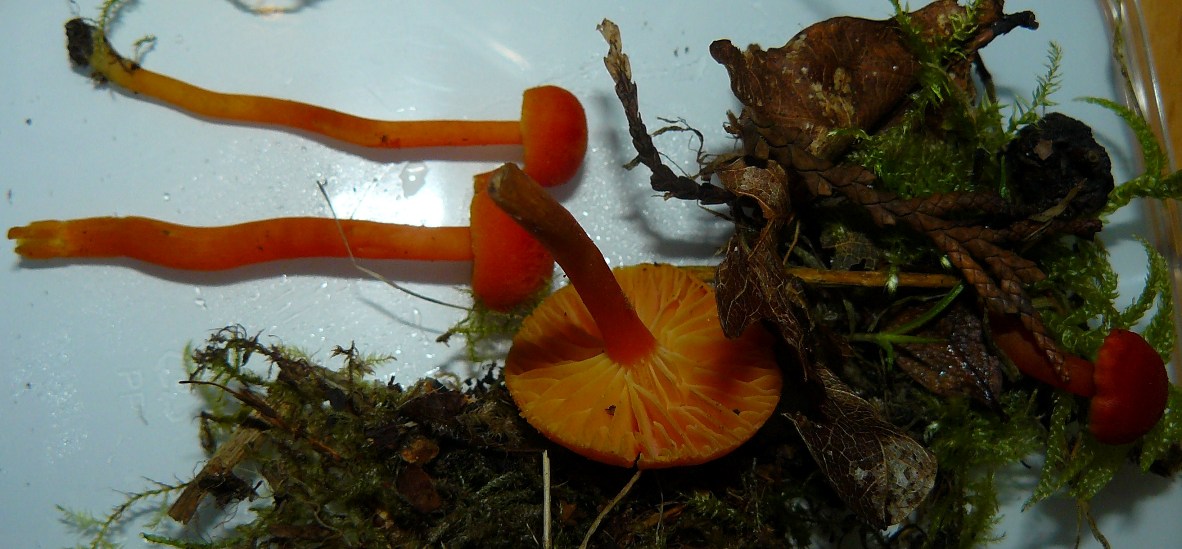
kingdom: Fungi
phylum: Basidiomycota
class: Agaricomycetes
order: Agaricales
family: Hygrophoraceae
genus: Hygrocybe
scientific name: Hygrocybe miniata
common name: mønje-vokshat
